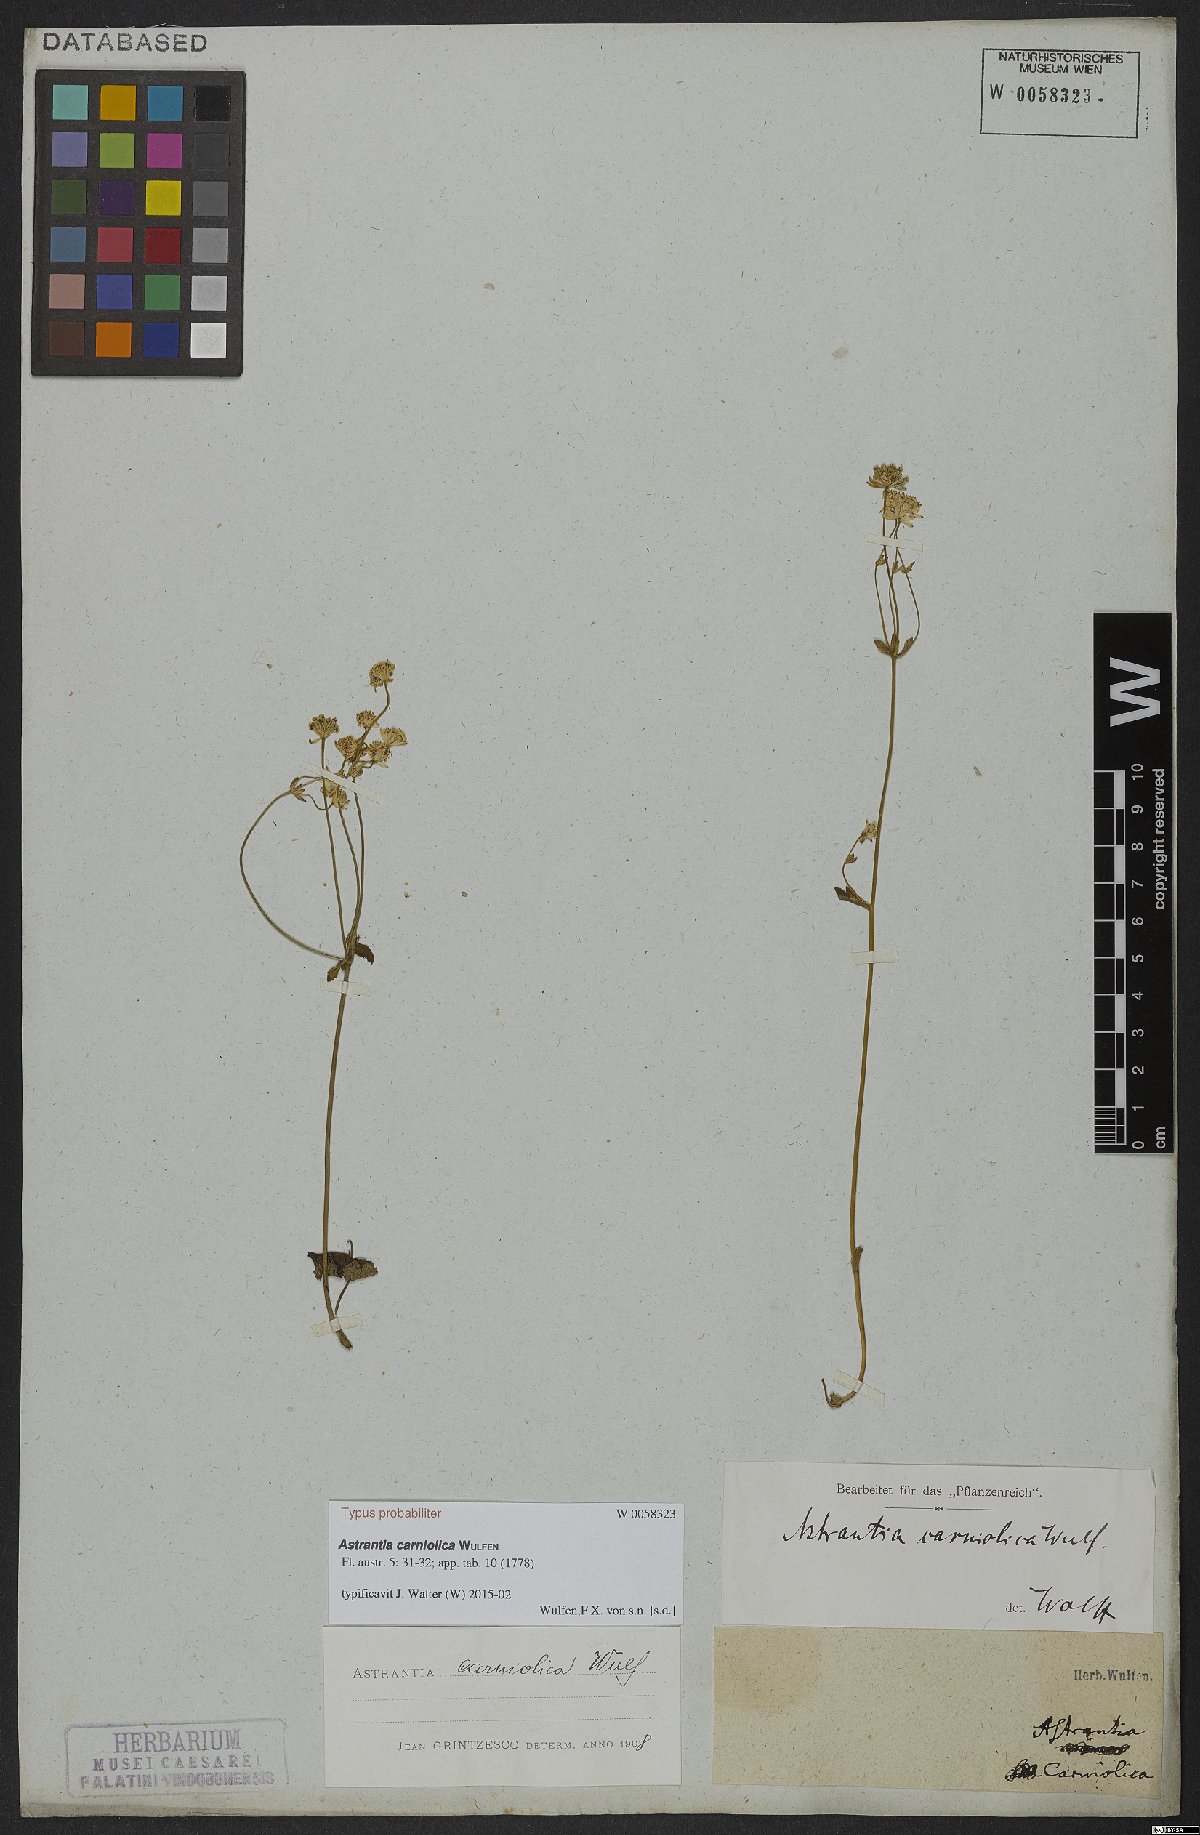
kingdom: Plantae
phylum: Tracheophyta
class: Magnoliopsida
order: Apiales
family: Apiaceae
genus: Astrantia
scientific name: Astrantia carniolica
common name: Carnic masterwort
